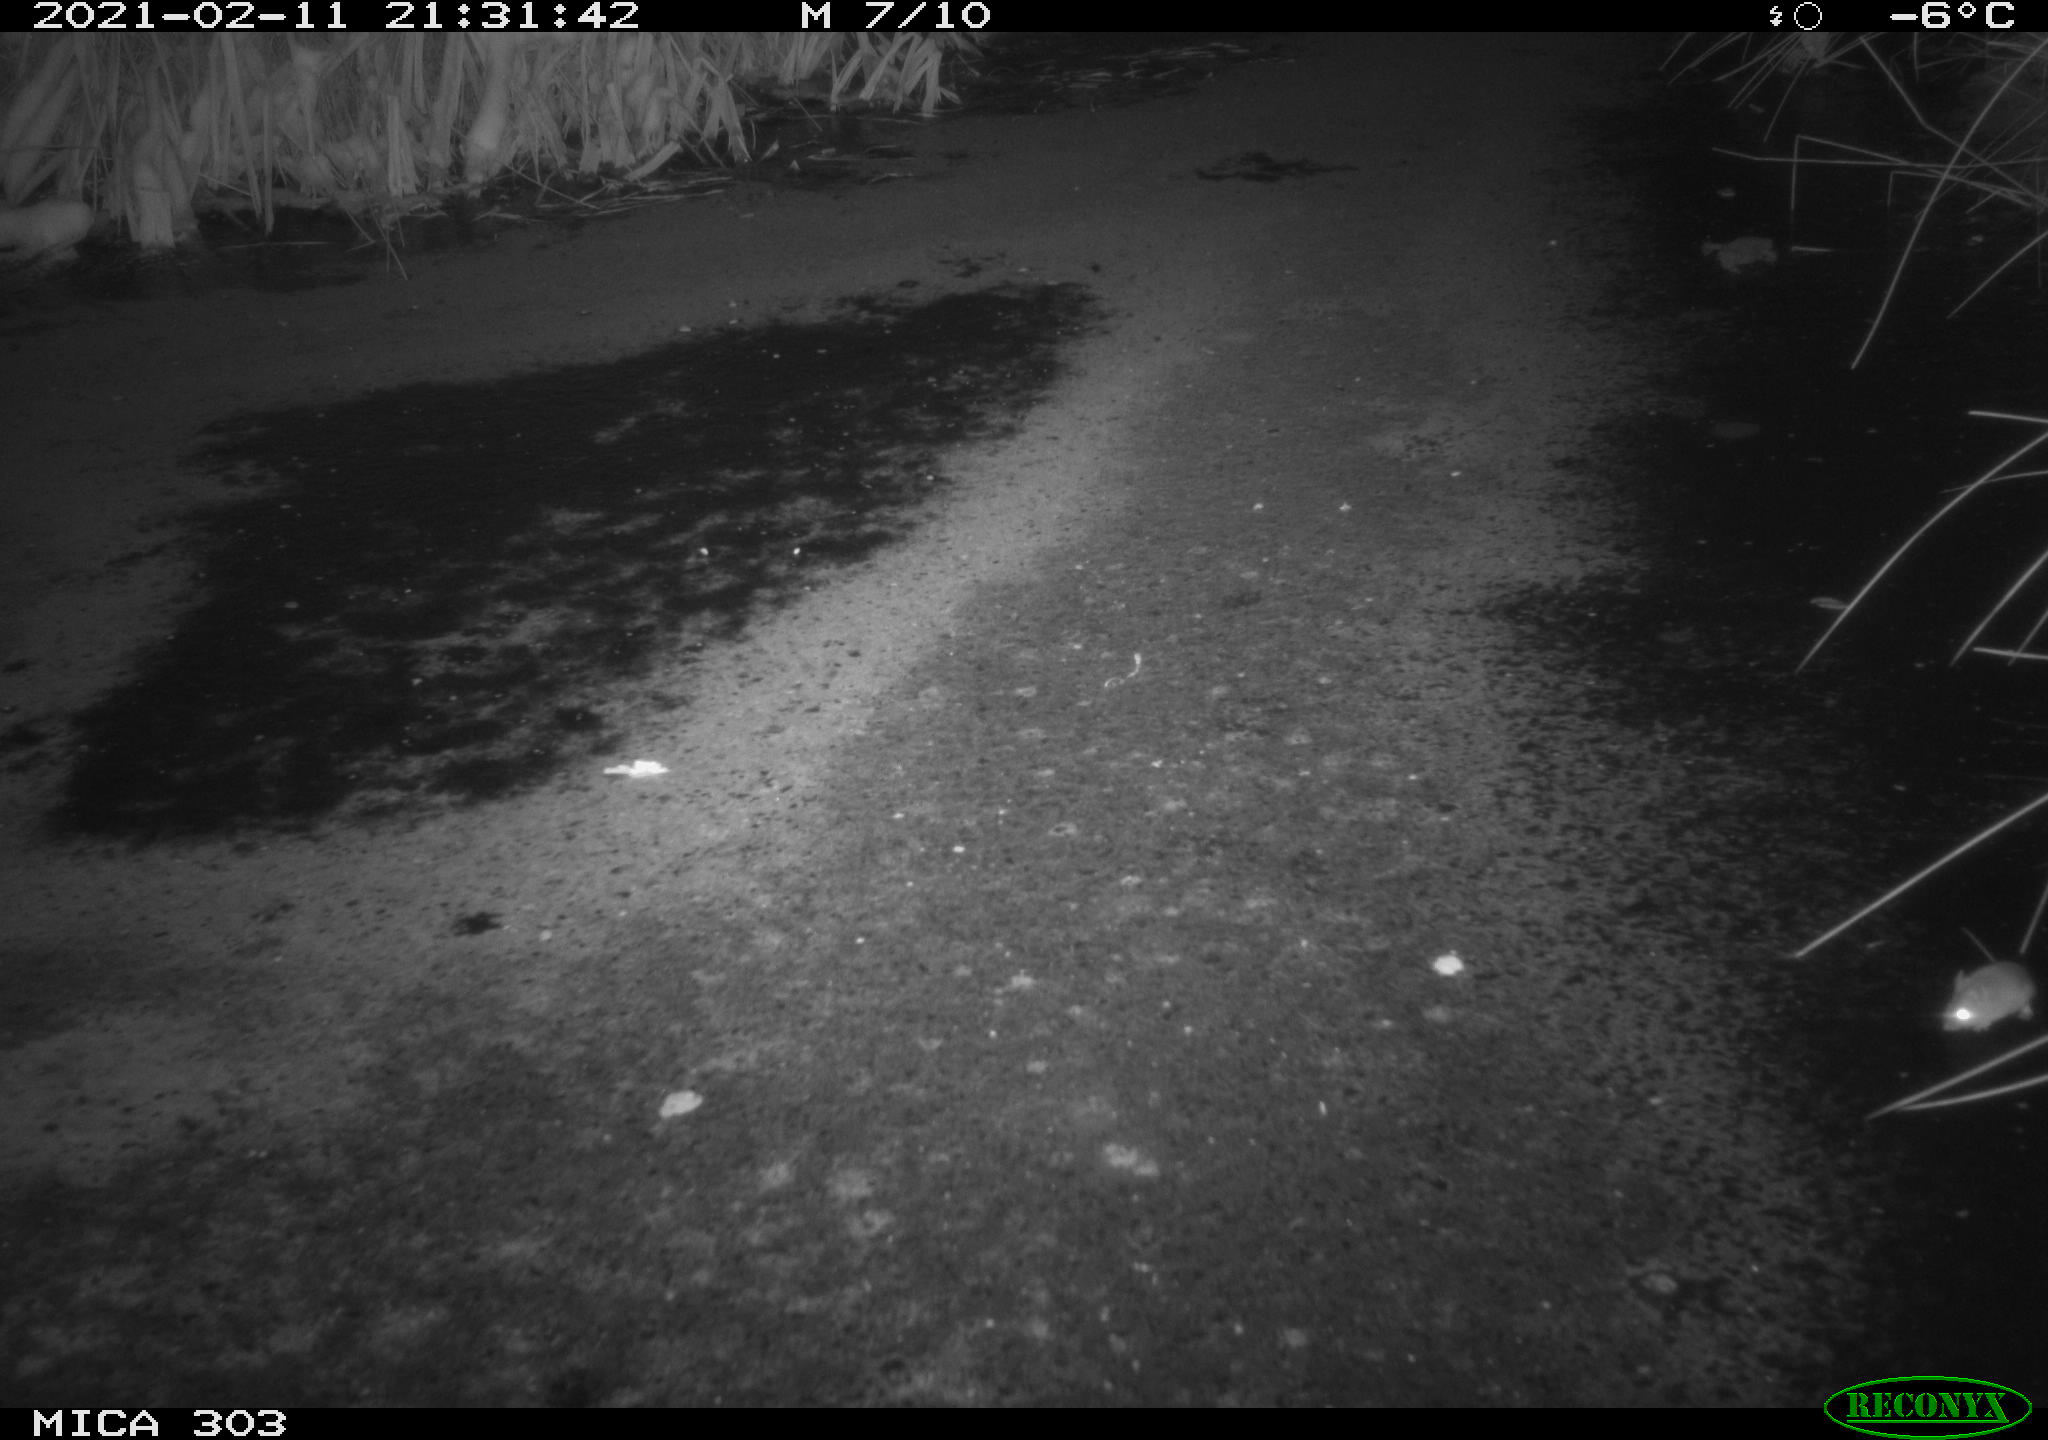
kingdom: Animalia
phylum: Chordata
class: Mammalia
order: Rodentia
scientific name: Rodentia
